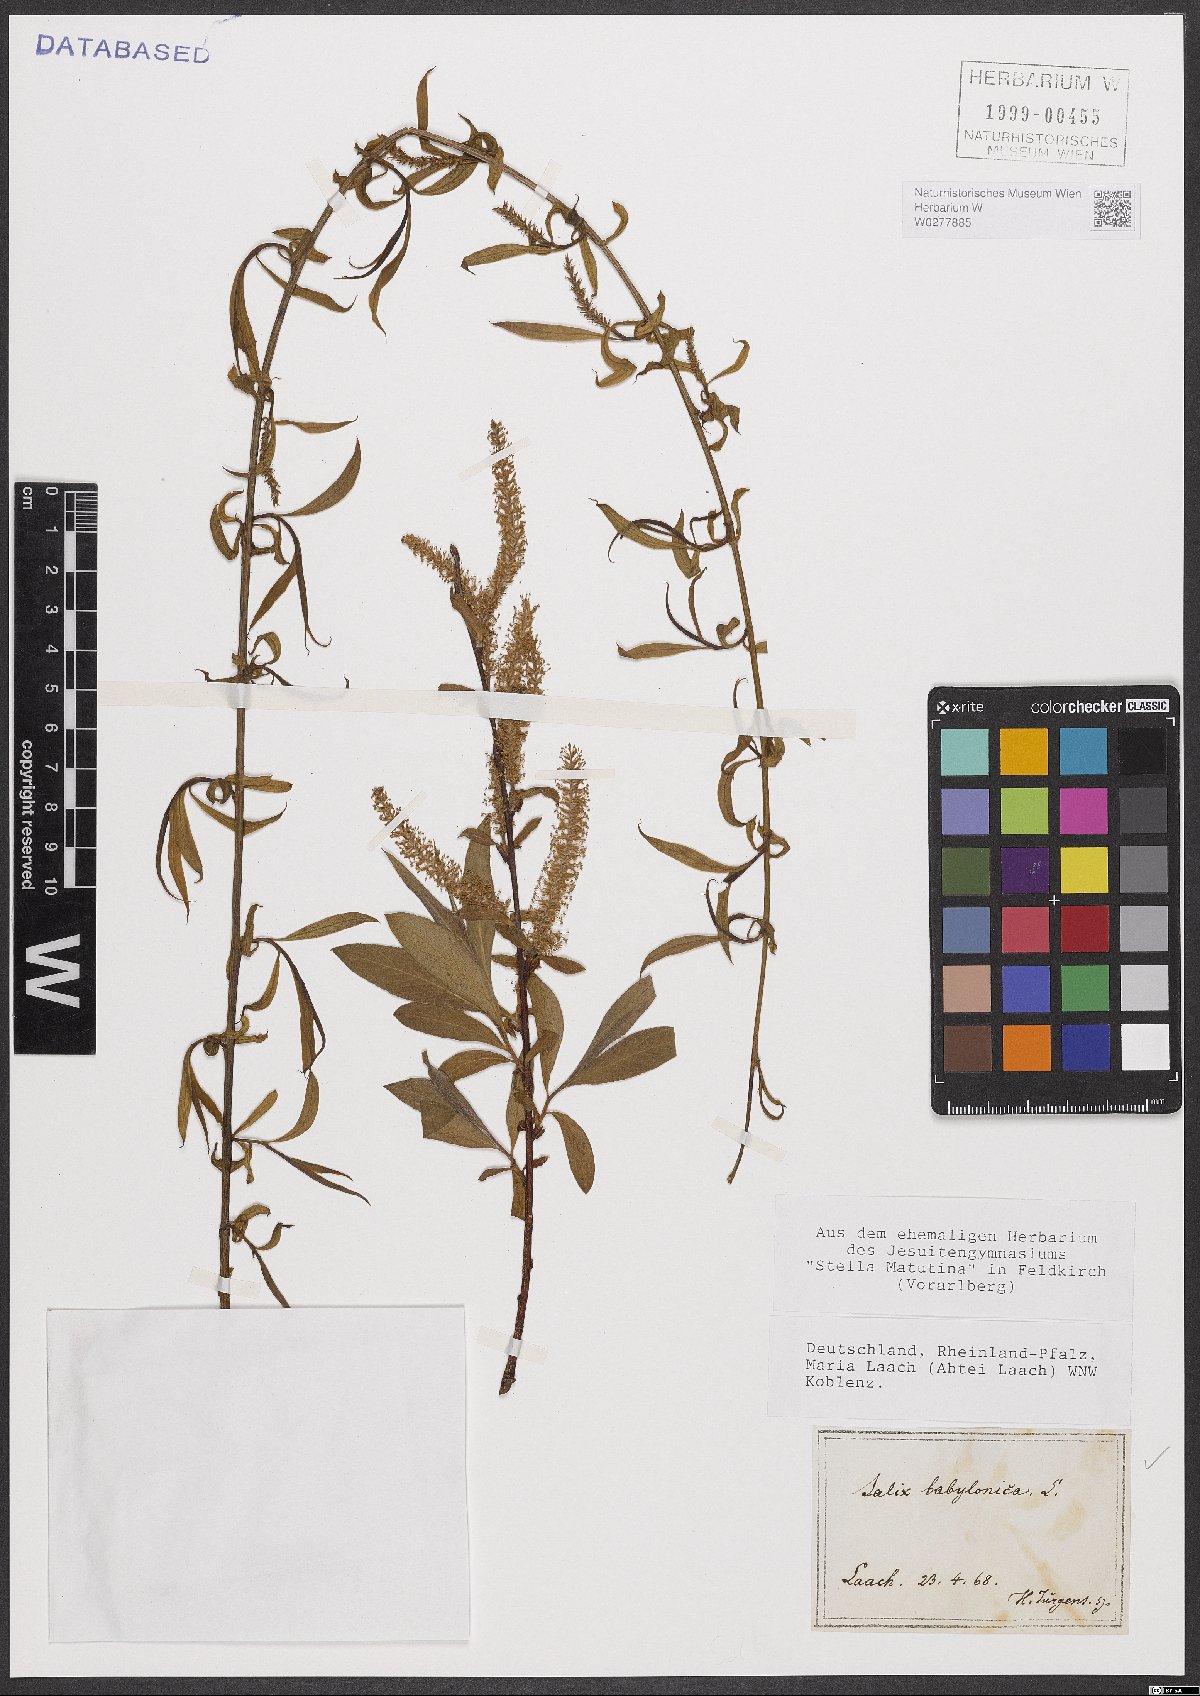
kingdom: Plantae
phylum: Tracheophyta
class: Magnoliopsida
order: Malpighiales
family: Salicaceae
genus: Salix
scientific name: Salix babylonica
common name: Weeping willow
